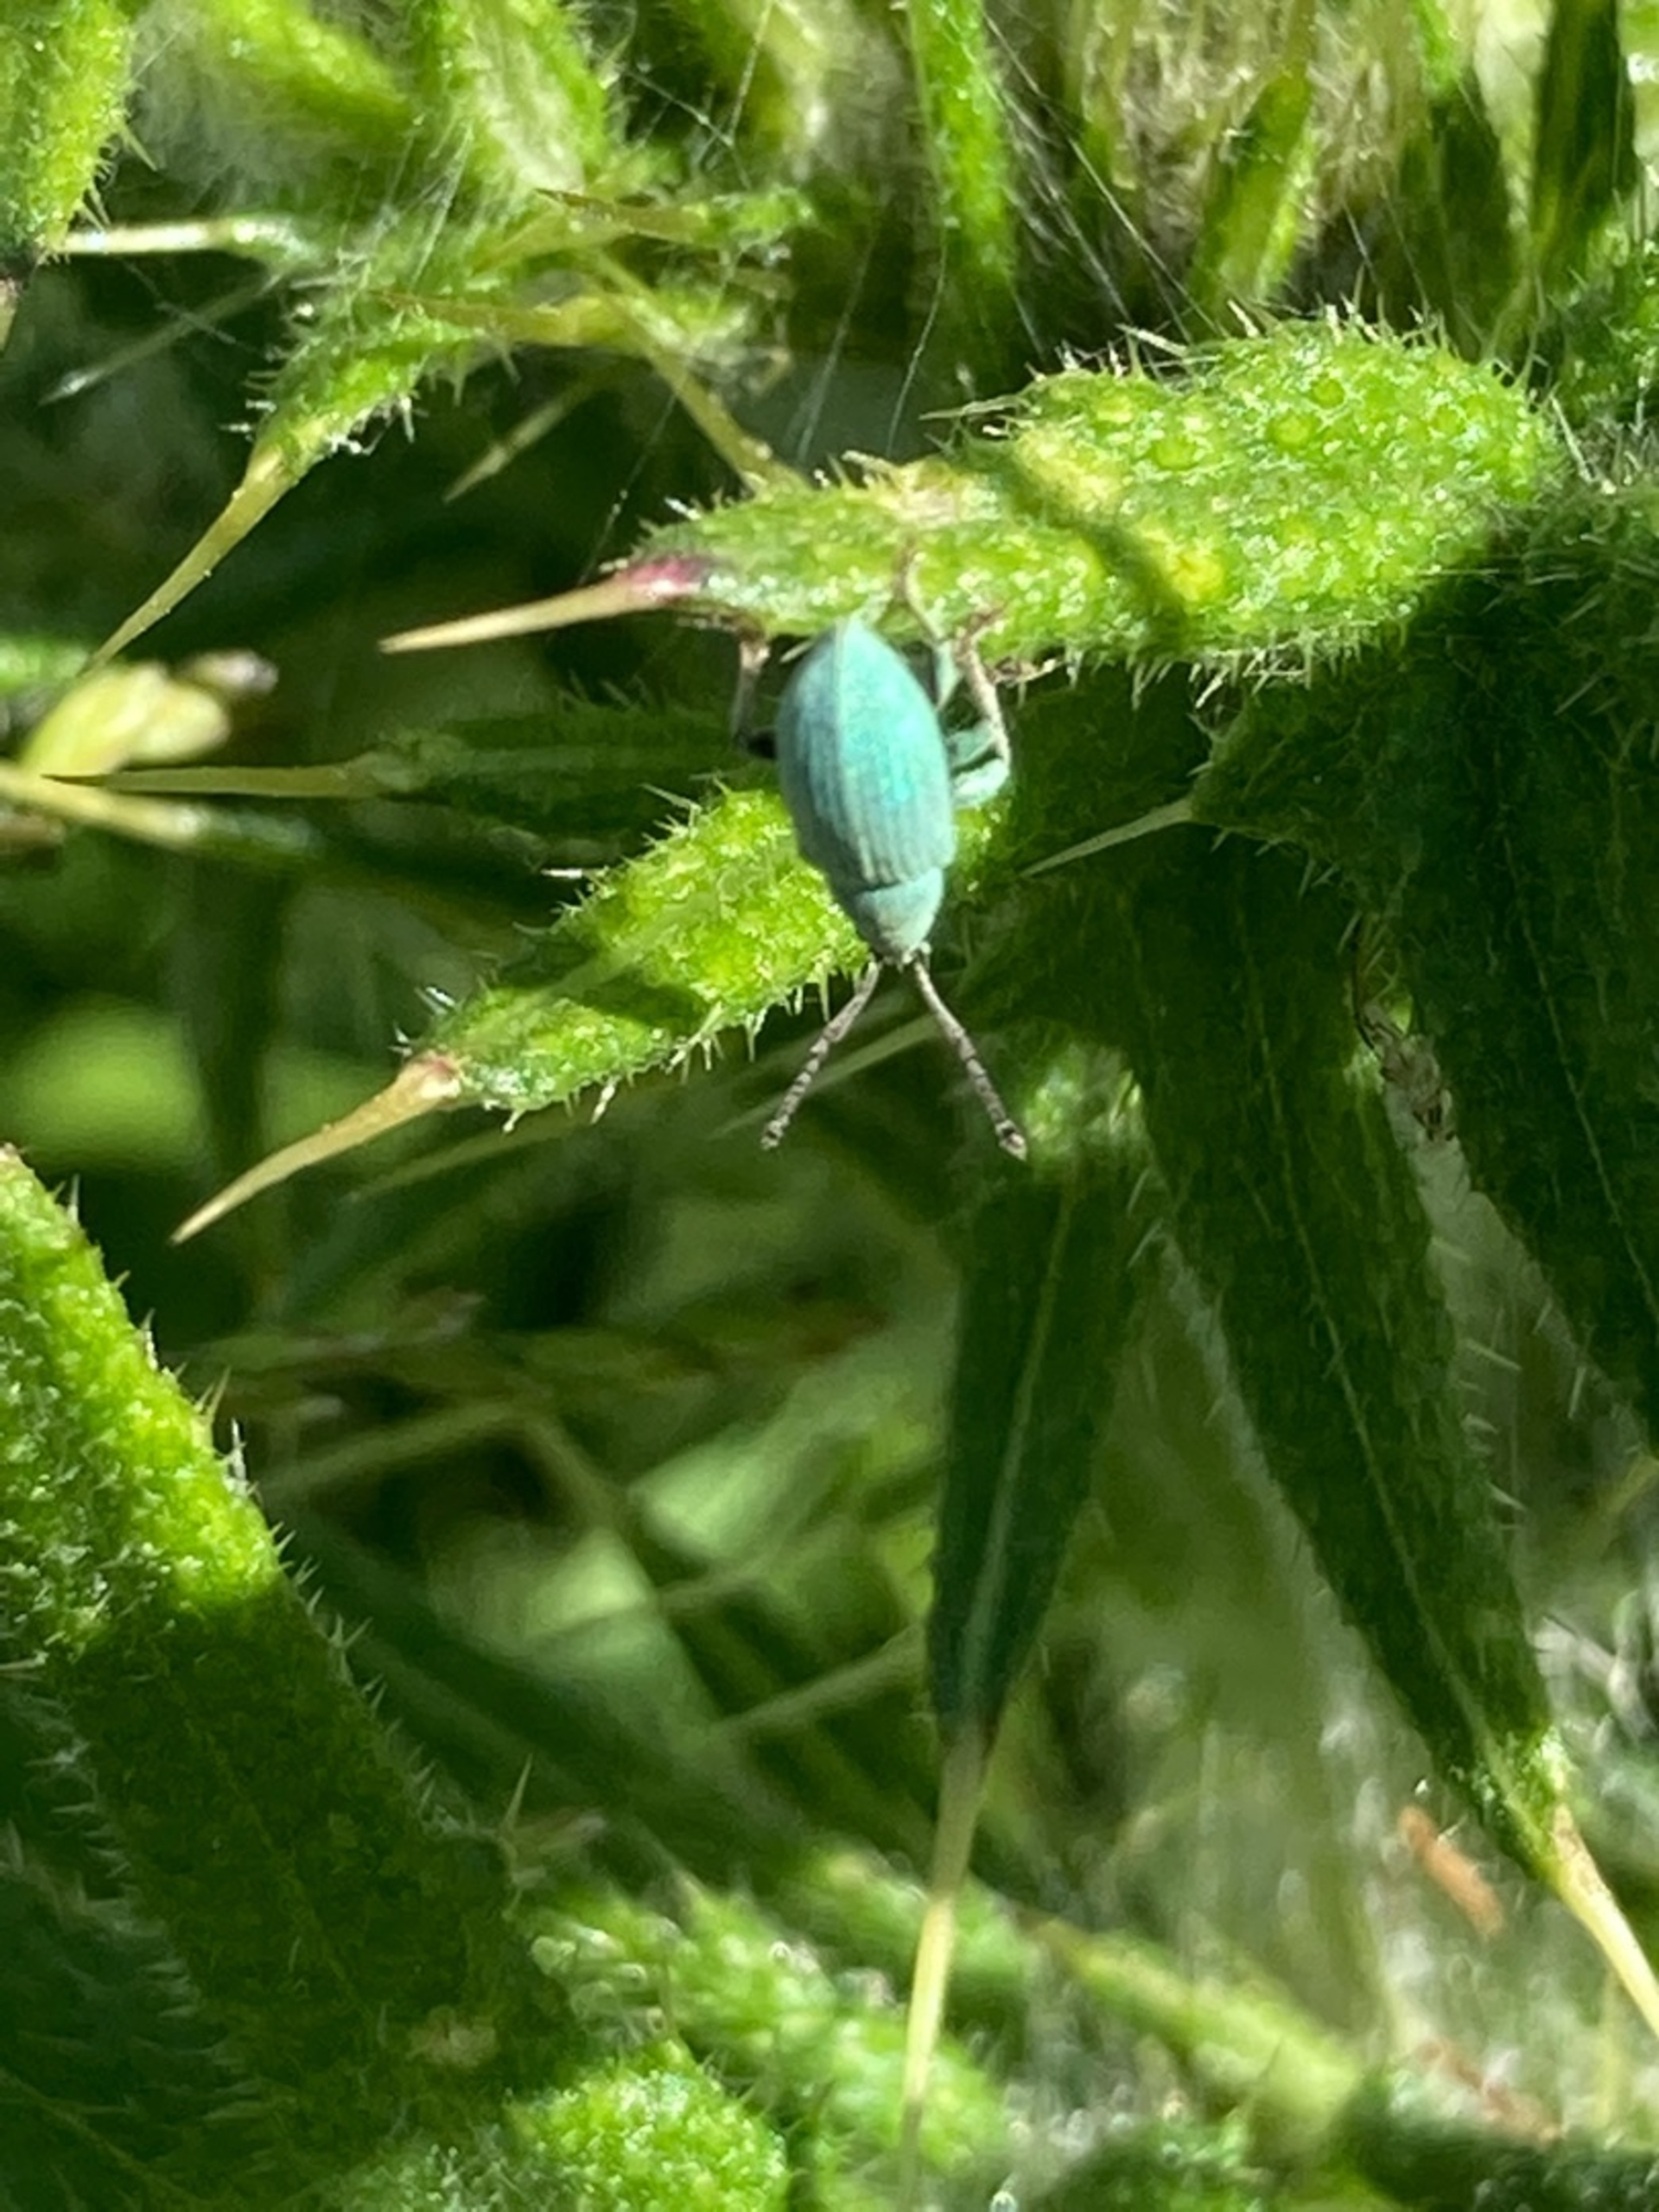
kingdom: Animalia
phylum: Arthropoda
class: Insecta
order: Coleoptera
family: Curculionidae
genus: Phyllobius
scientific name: Phyllobius virideaeris
